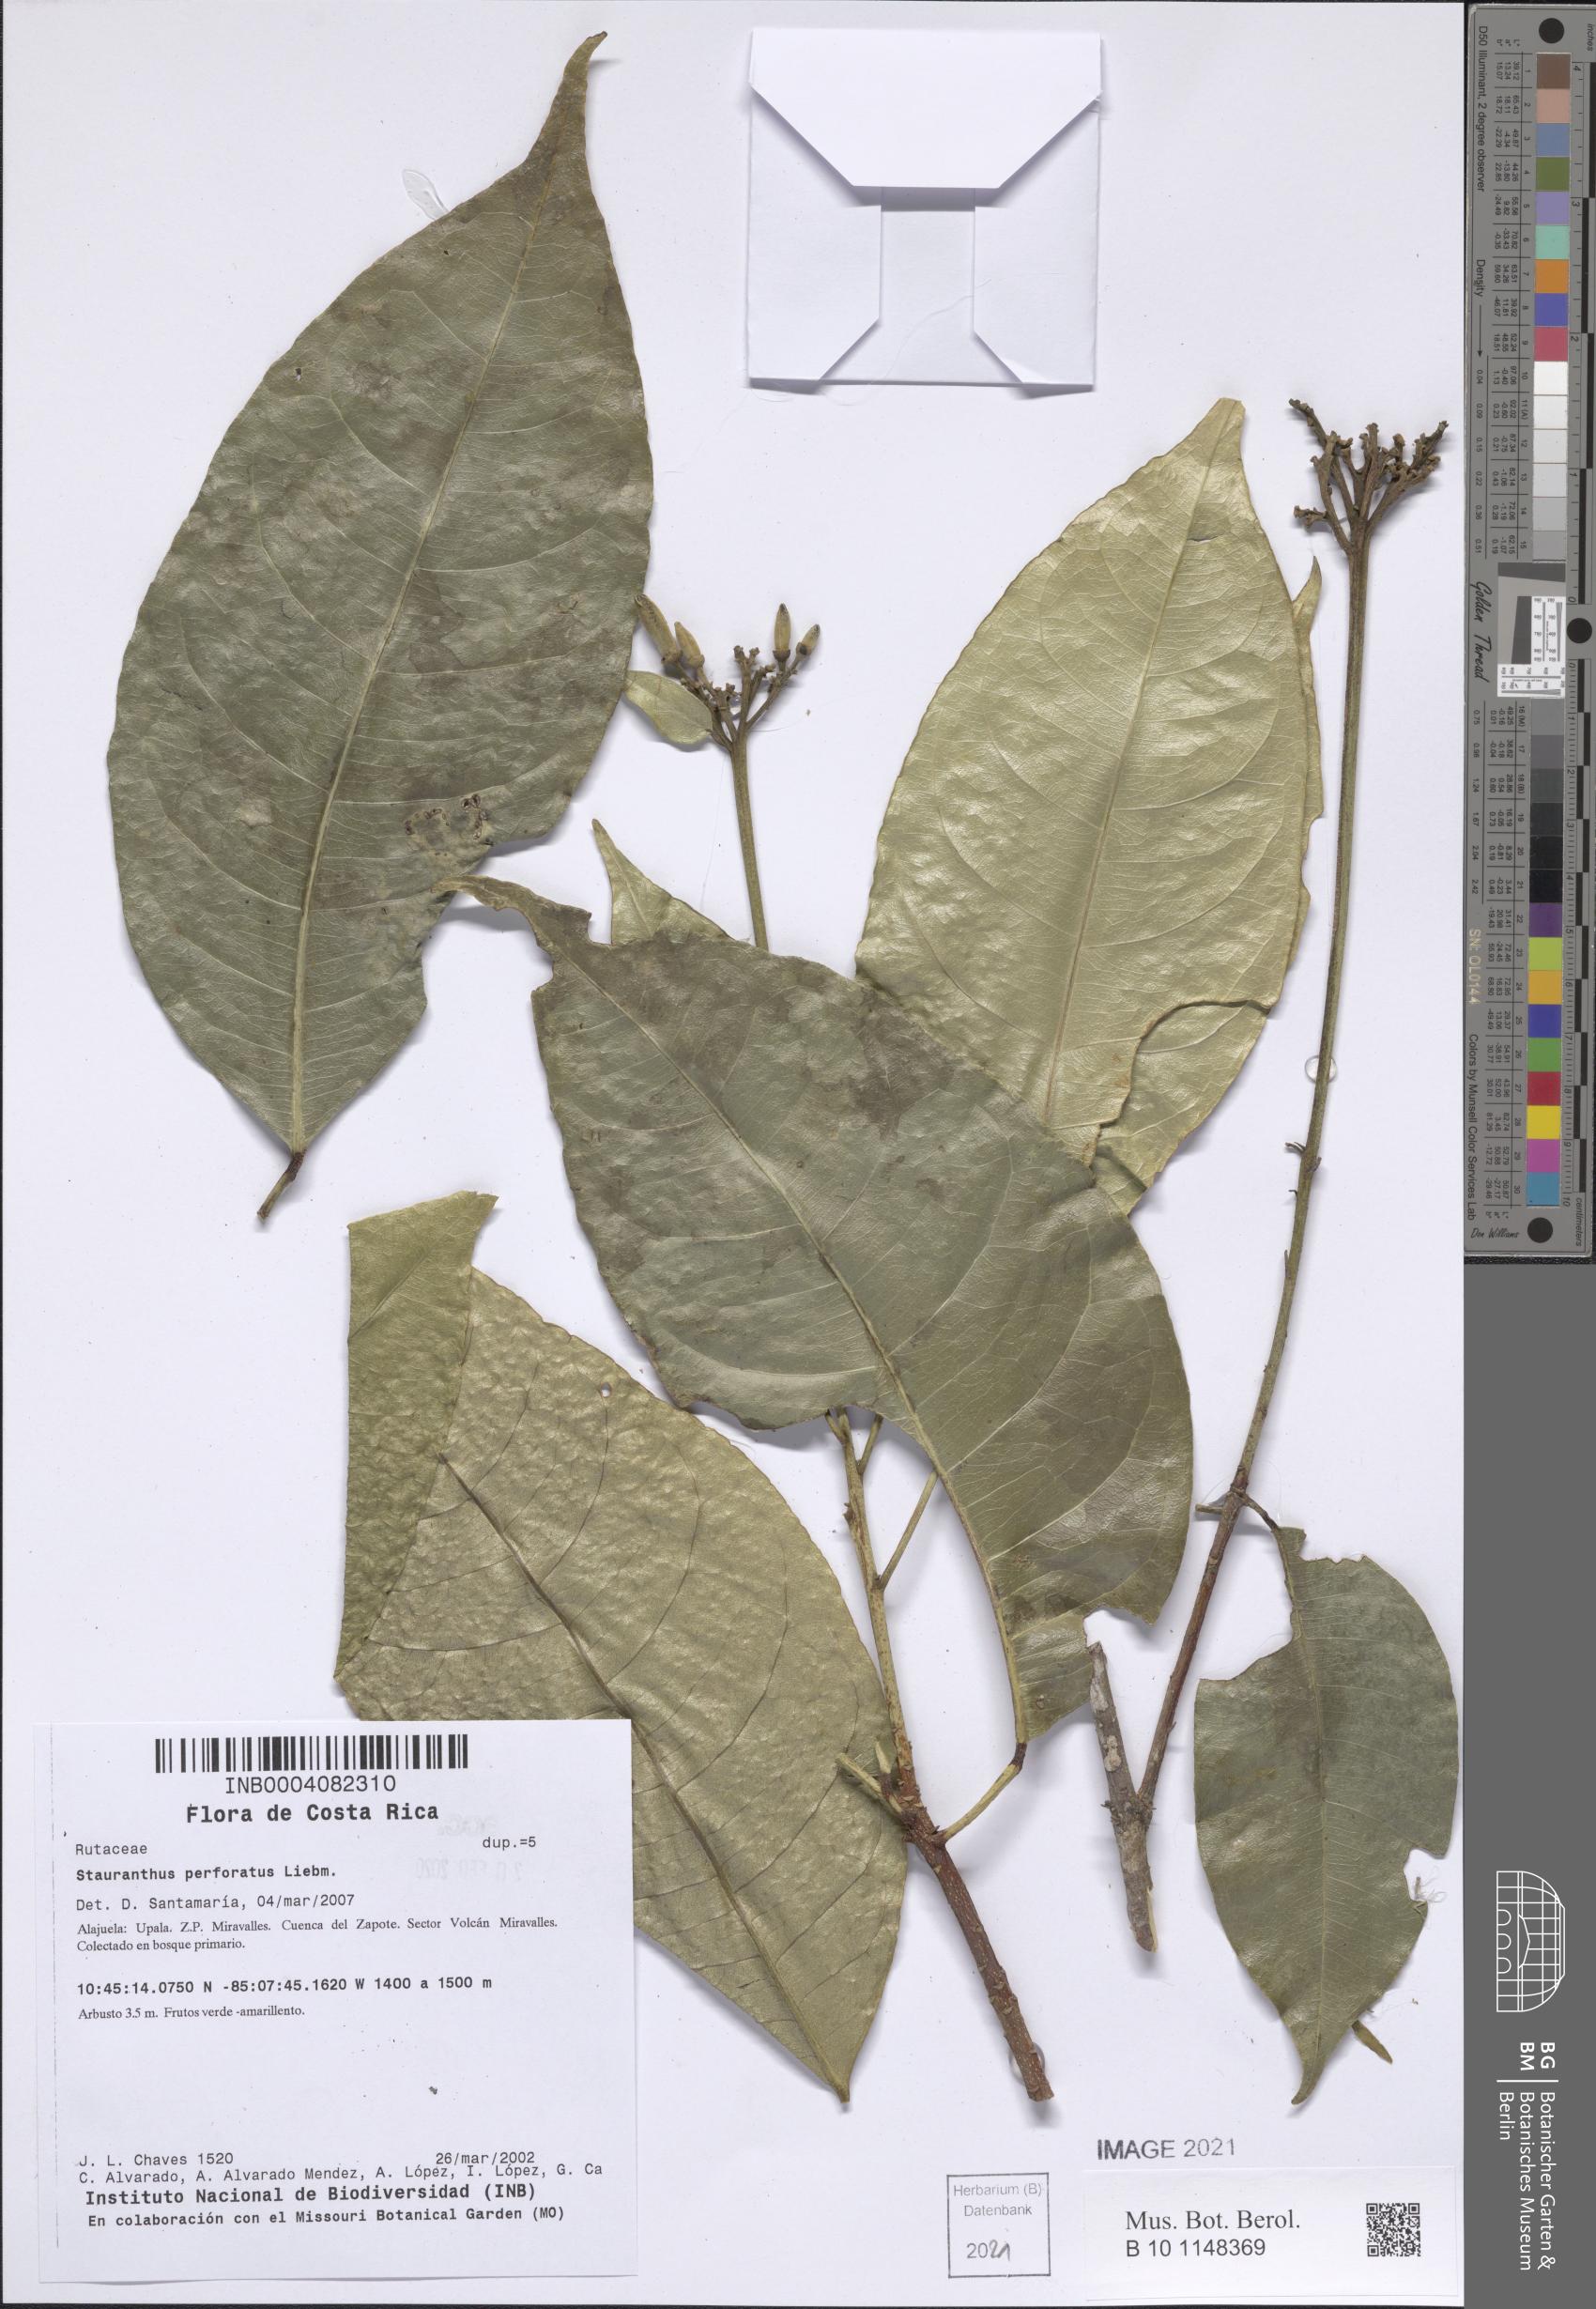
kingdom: Plantae
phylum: Tracheophyta
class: Magnoliopsida
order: Sapindales
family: Rutaceae
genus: Stauranthus
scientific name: Stauranthus perforatus
